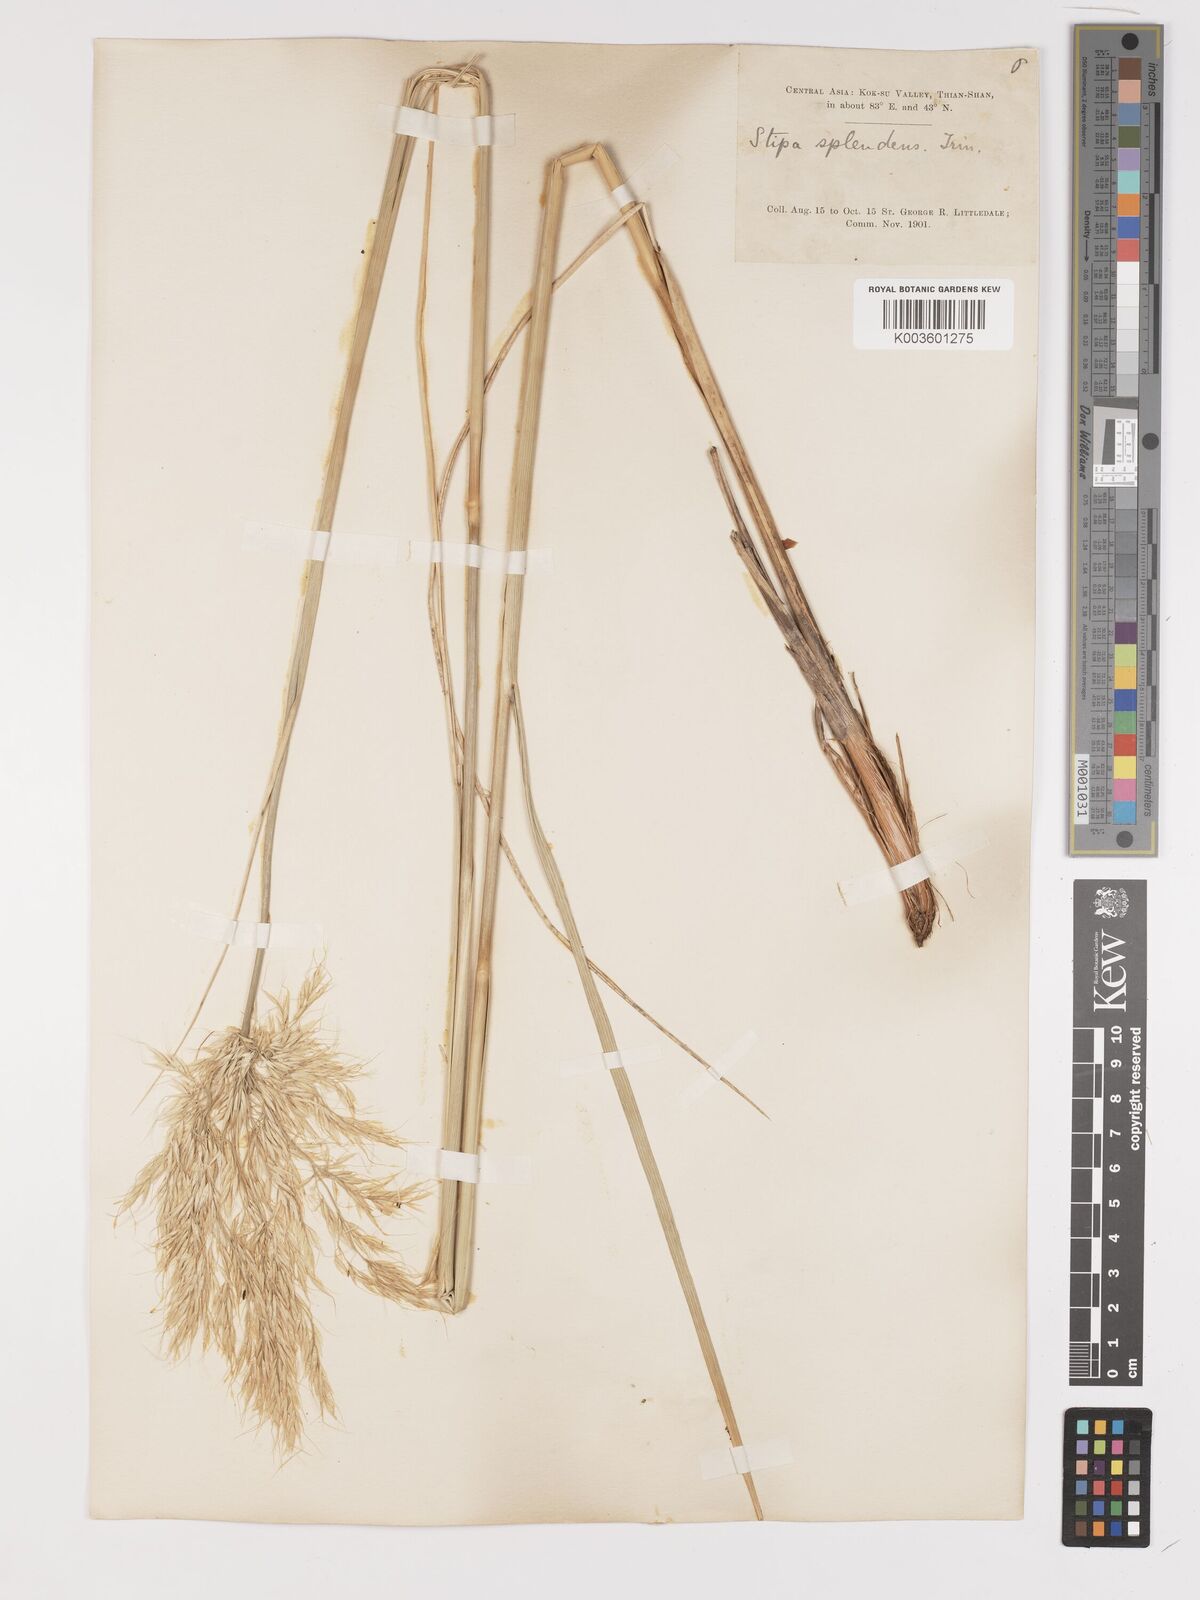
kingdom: Plantae
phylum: Tracheophyta
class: Liliopsida
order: Poales
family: Poaceae
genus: Neotrinia
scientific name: Neotrinia splendens
